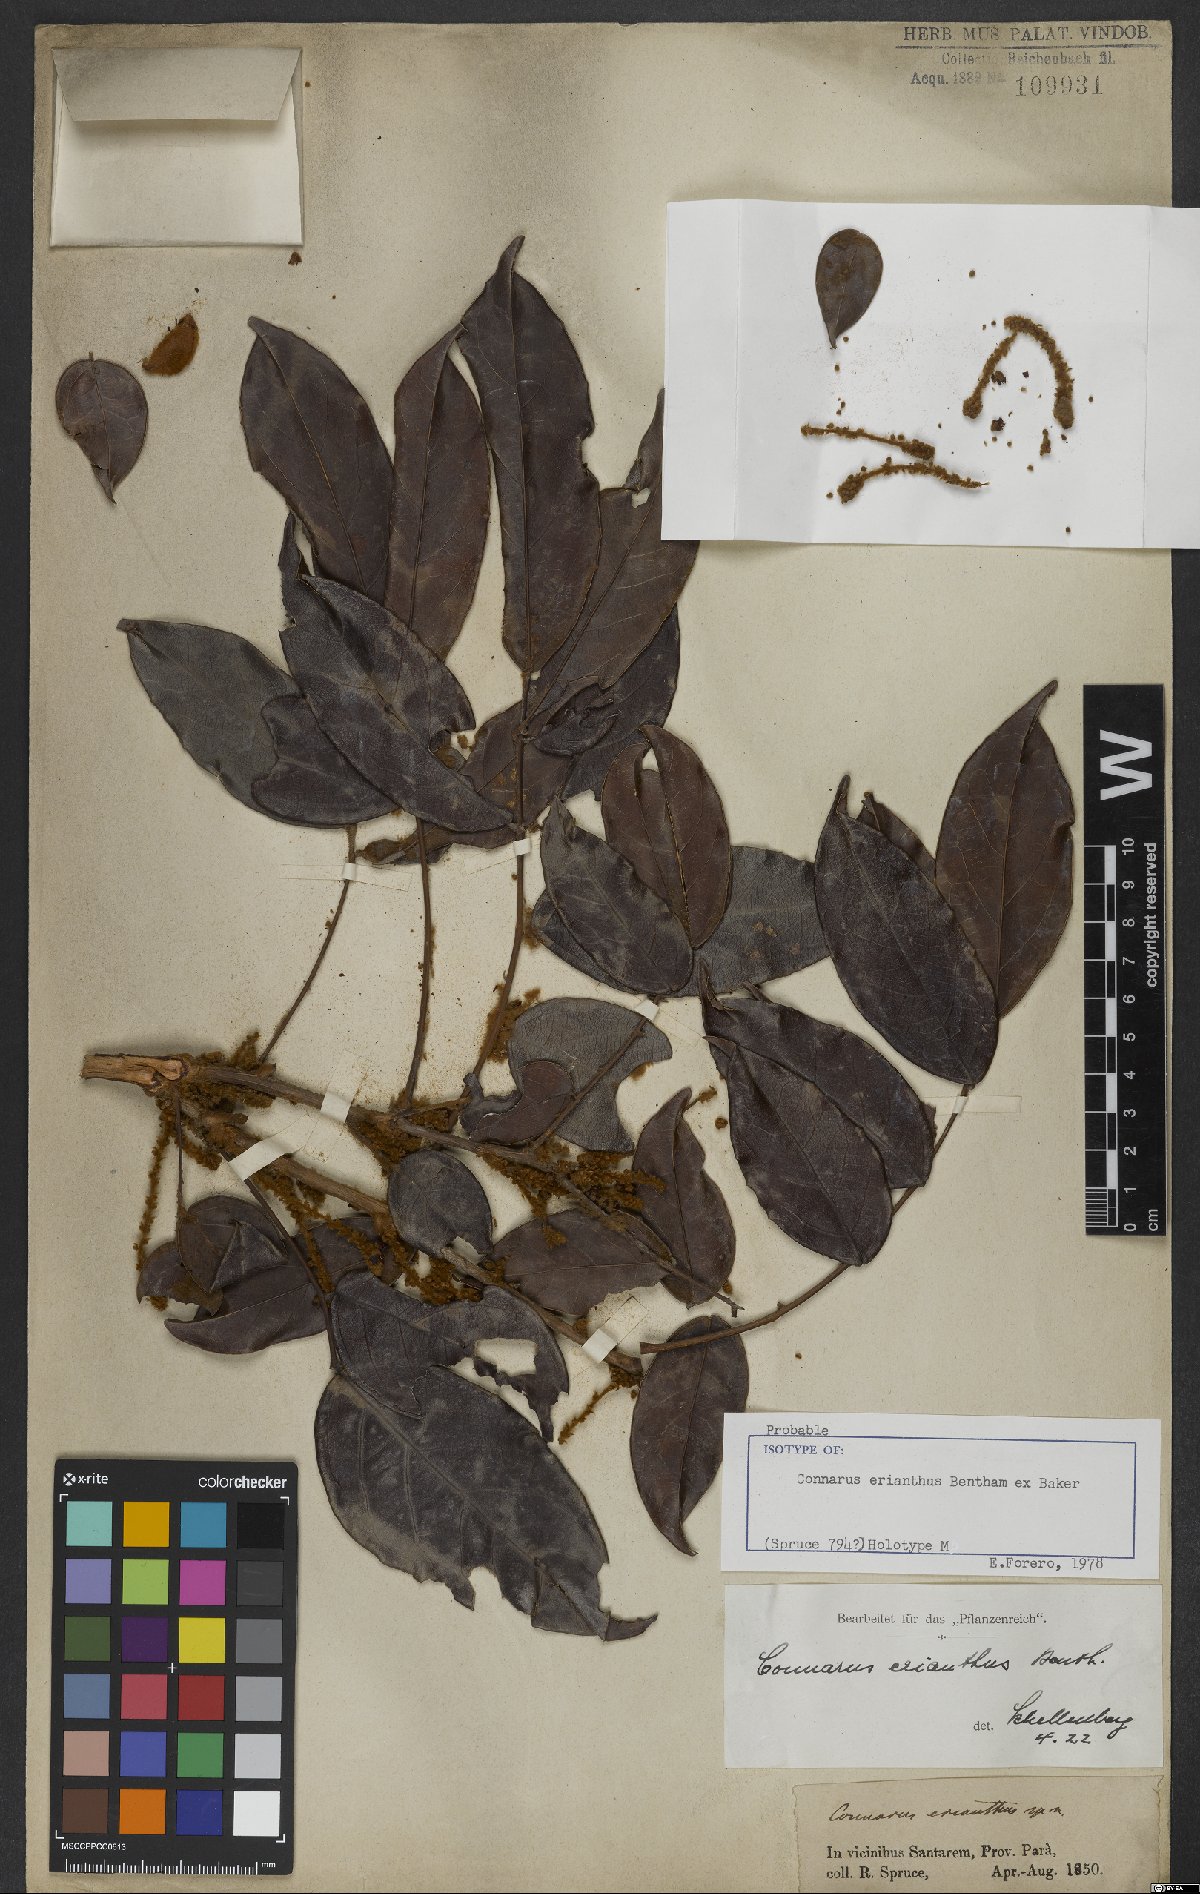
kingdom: Plantae
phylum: Tracheophyta
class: Magnoliopsida
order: Oxalidales
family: Connaraceae
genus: Connarus
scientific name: Connarus erianthus
